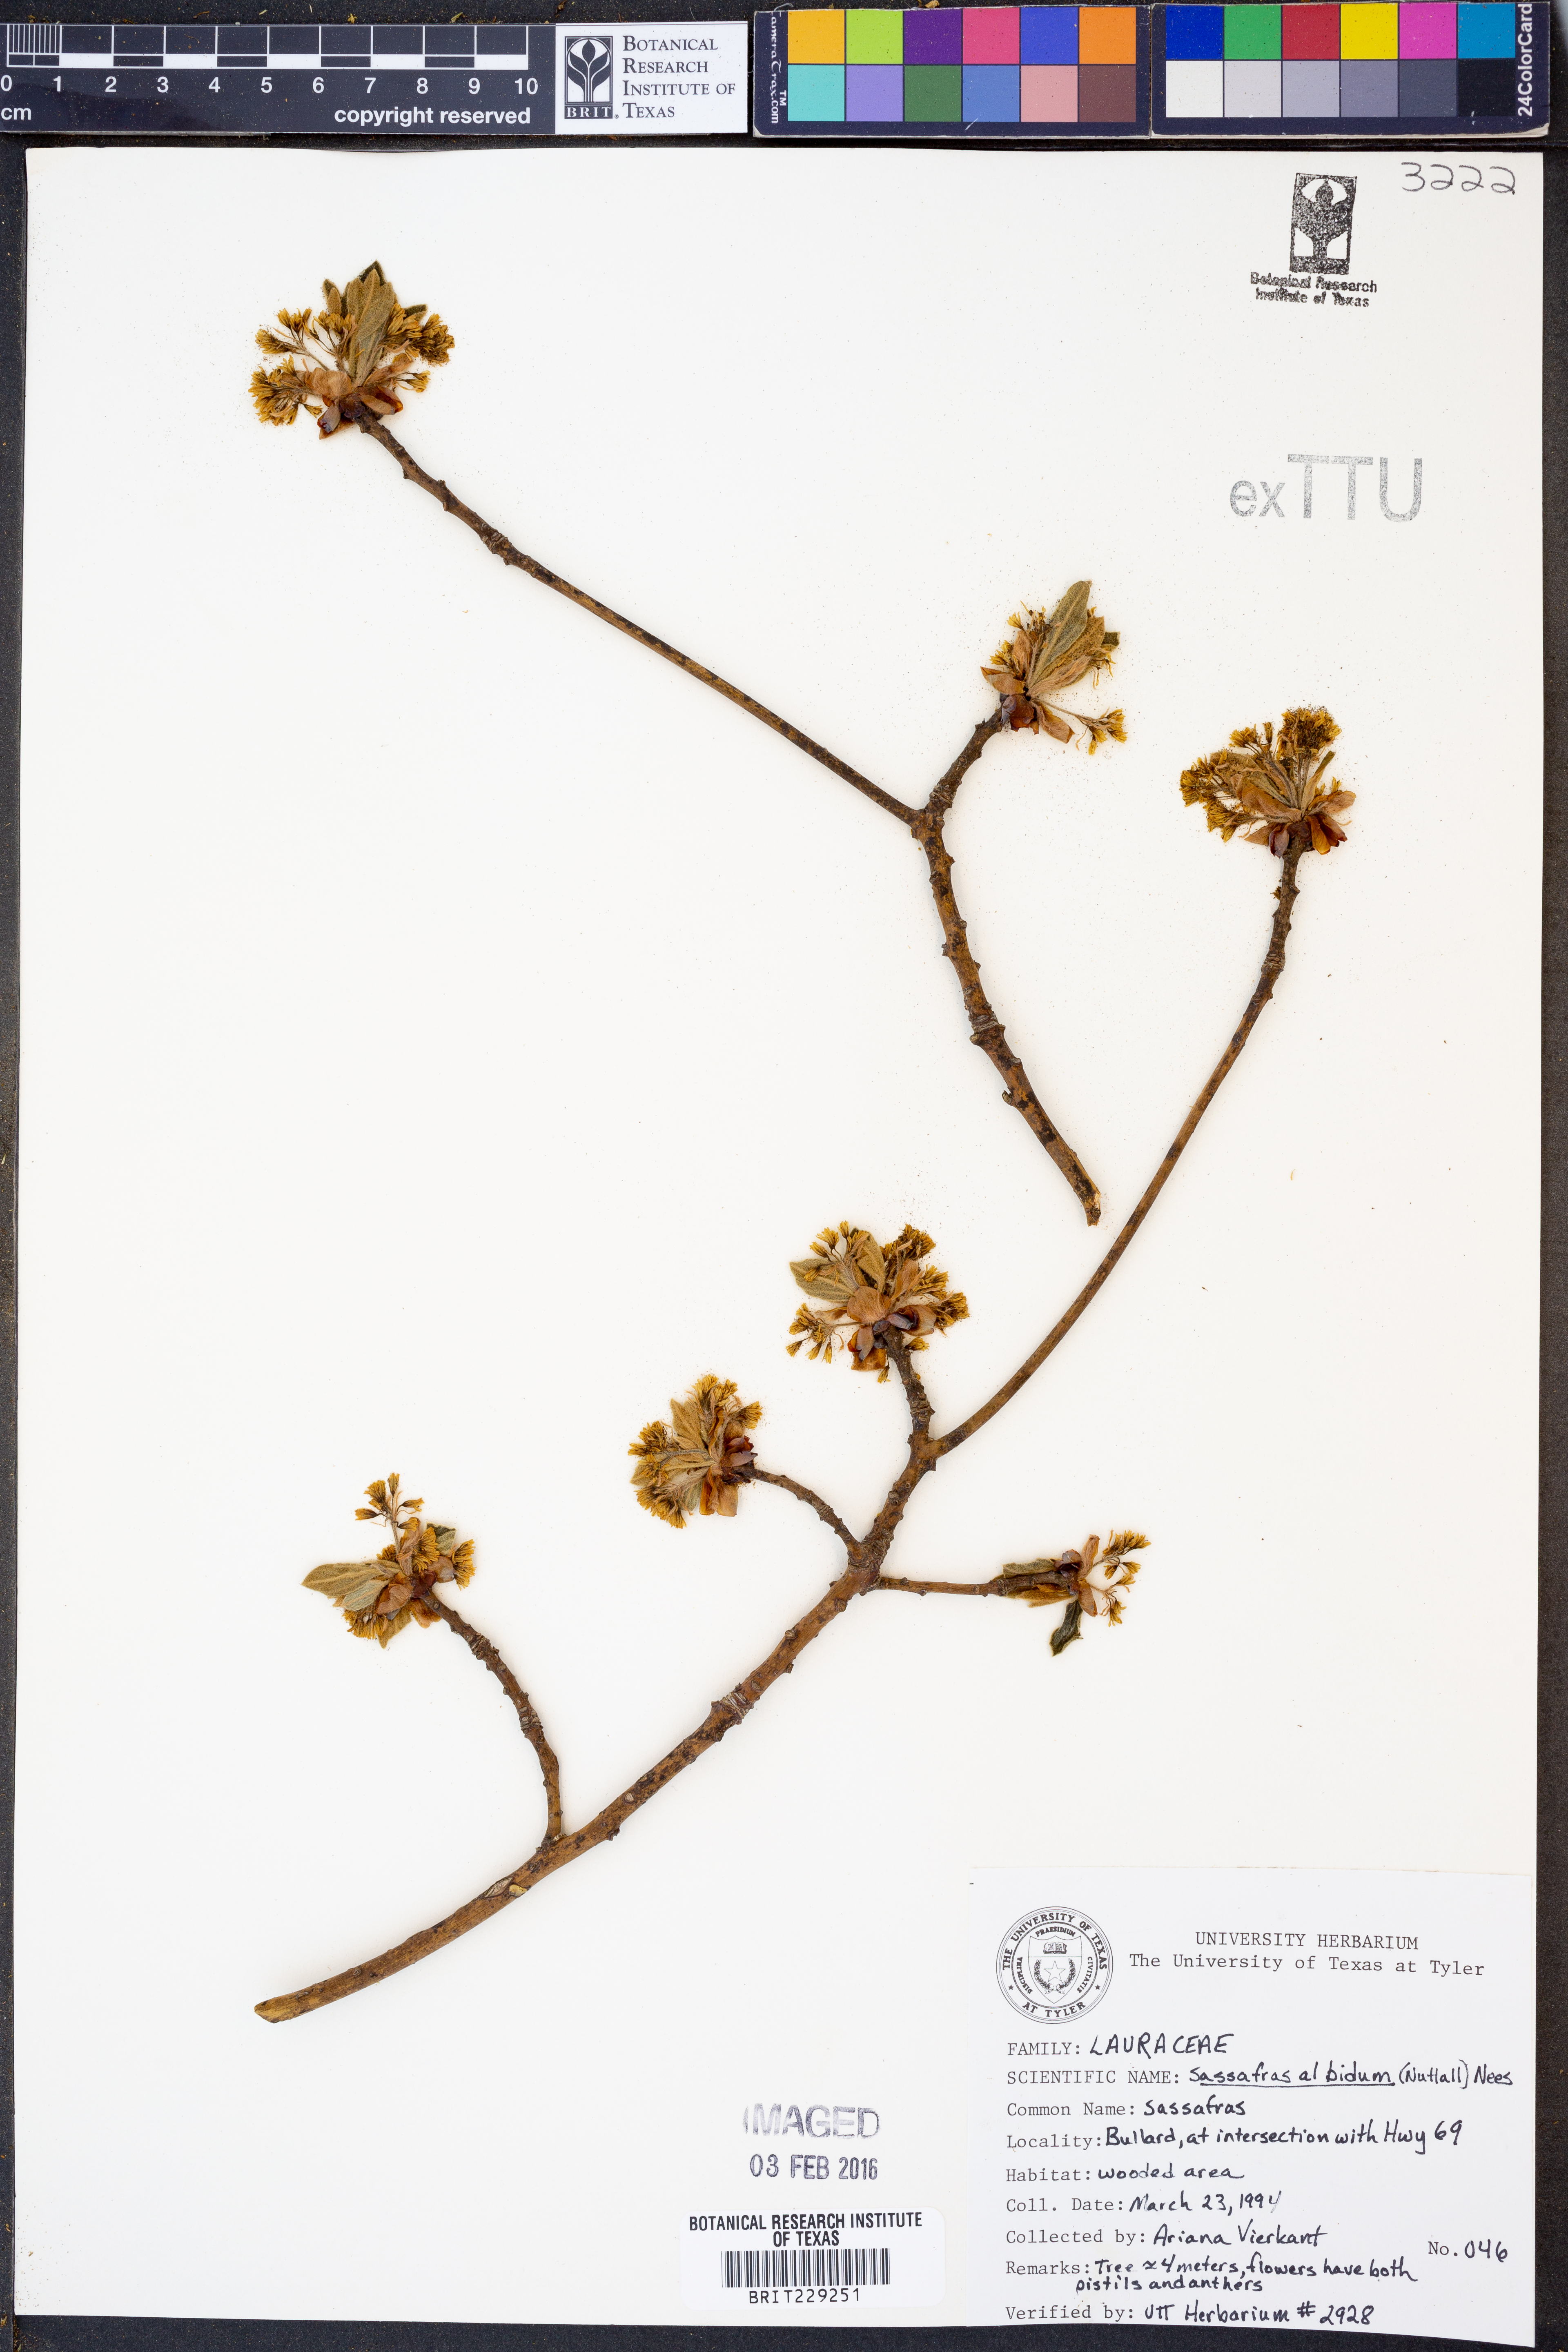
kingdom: Plantae
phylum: Tracheophyta
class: Magnoliopsida
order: Laurales
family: Lauraceae
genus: Sassafras
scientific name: Sassafras albidum
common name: Sassafras
